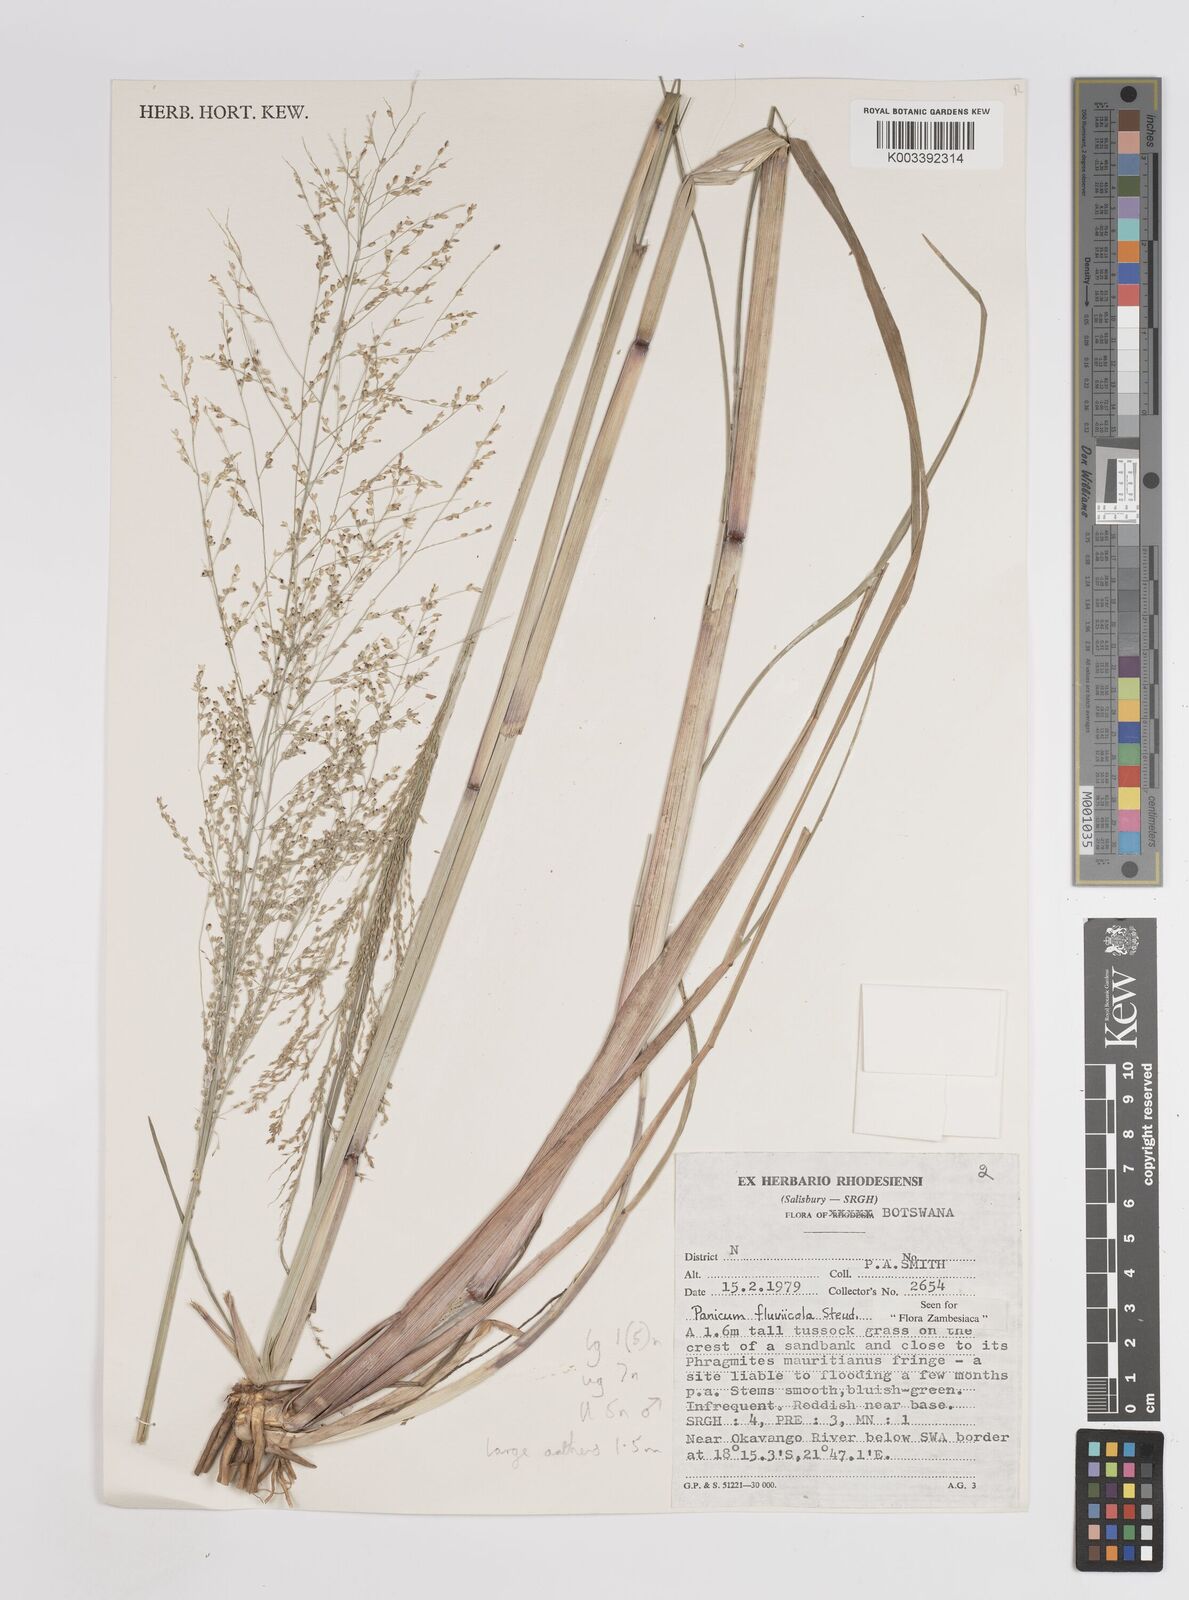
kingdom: Plantae
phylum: Tracheophyta
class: Liliopsida
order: Poales
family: Poaceae
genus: Panicum
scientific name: Panicum fluviicola
